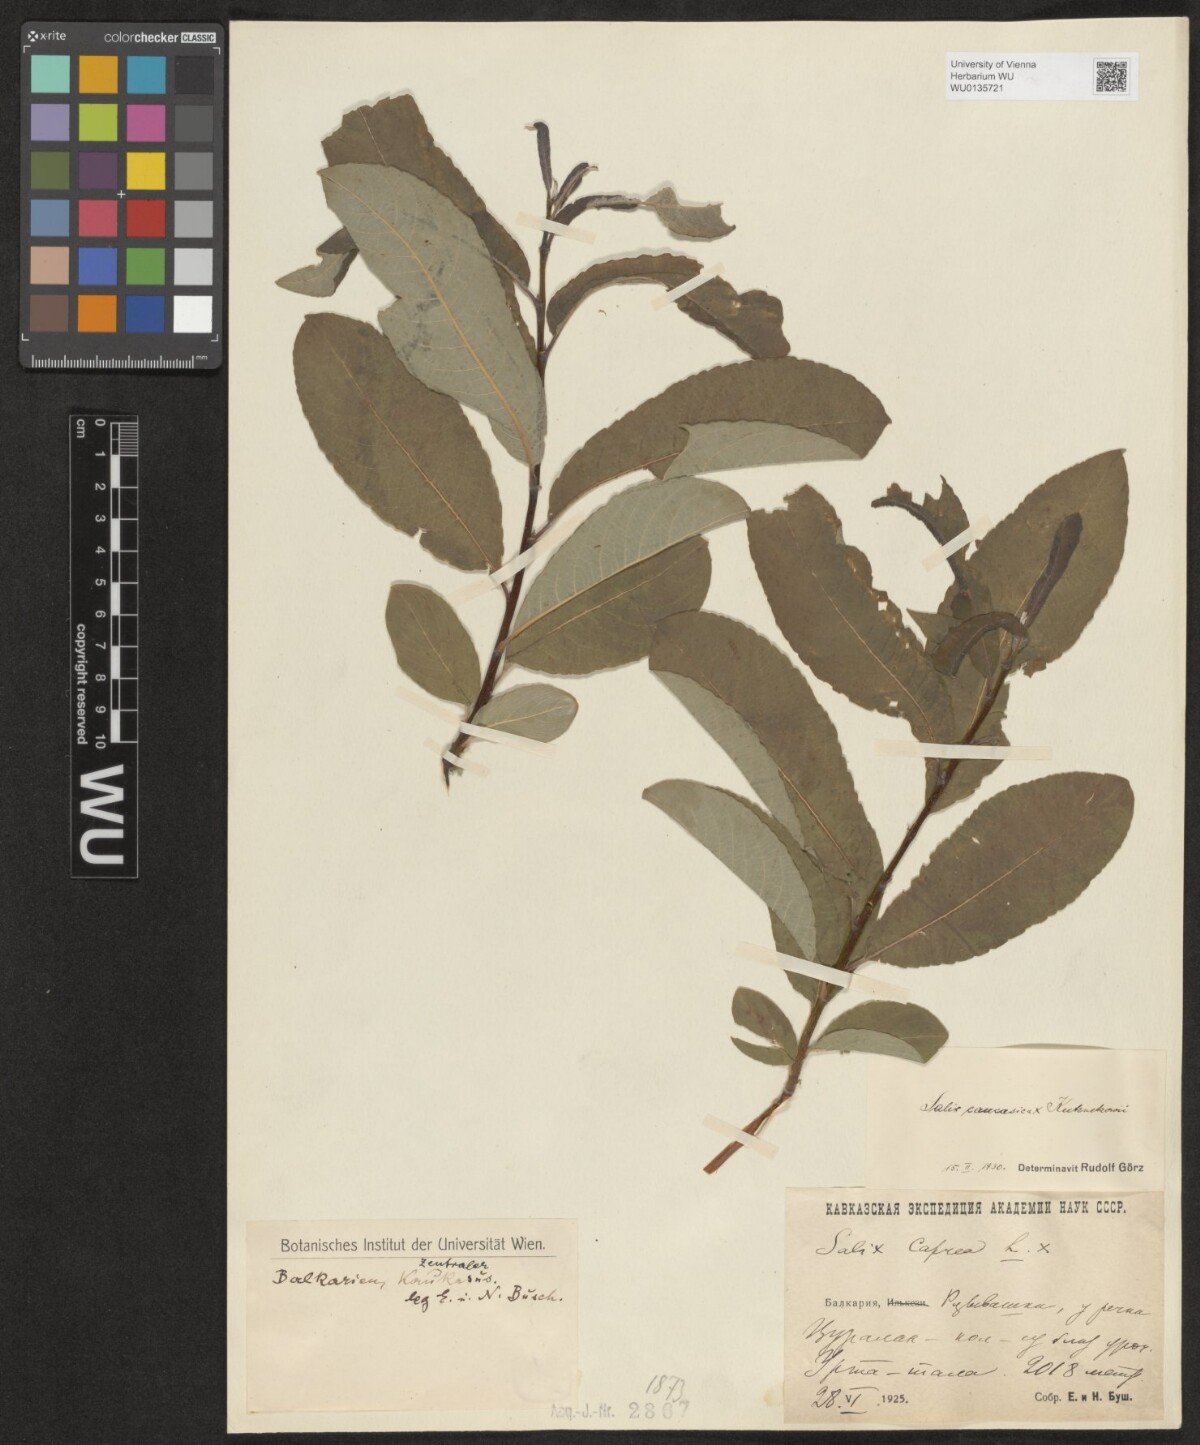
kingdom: Plantae
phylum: Tracheophyta
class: Magnoliopsida
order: Malpighiales
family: Salicaceae
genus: Salix
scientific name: Salix caucasica
